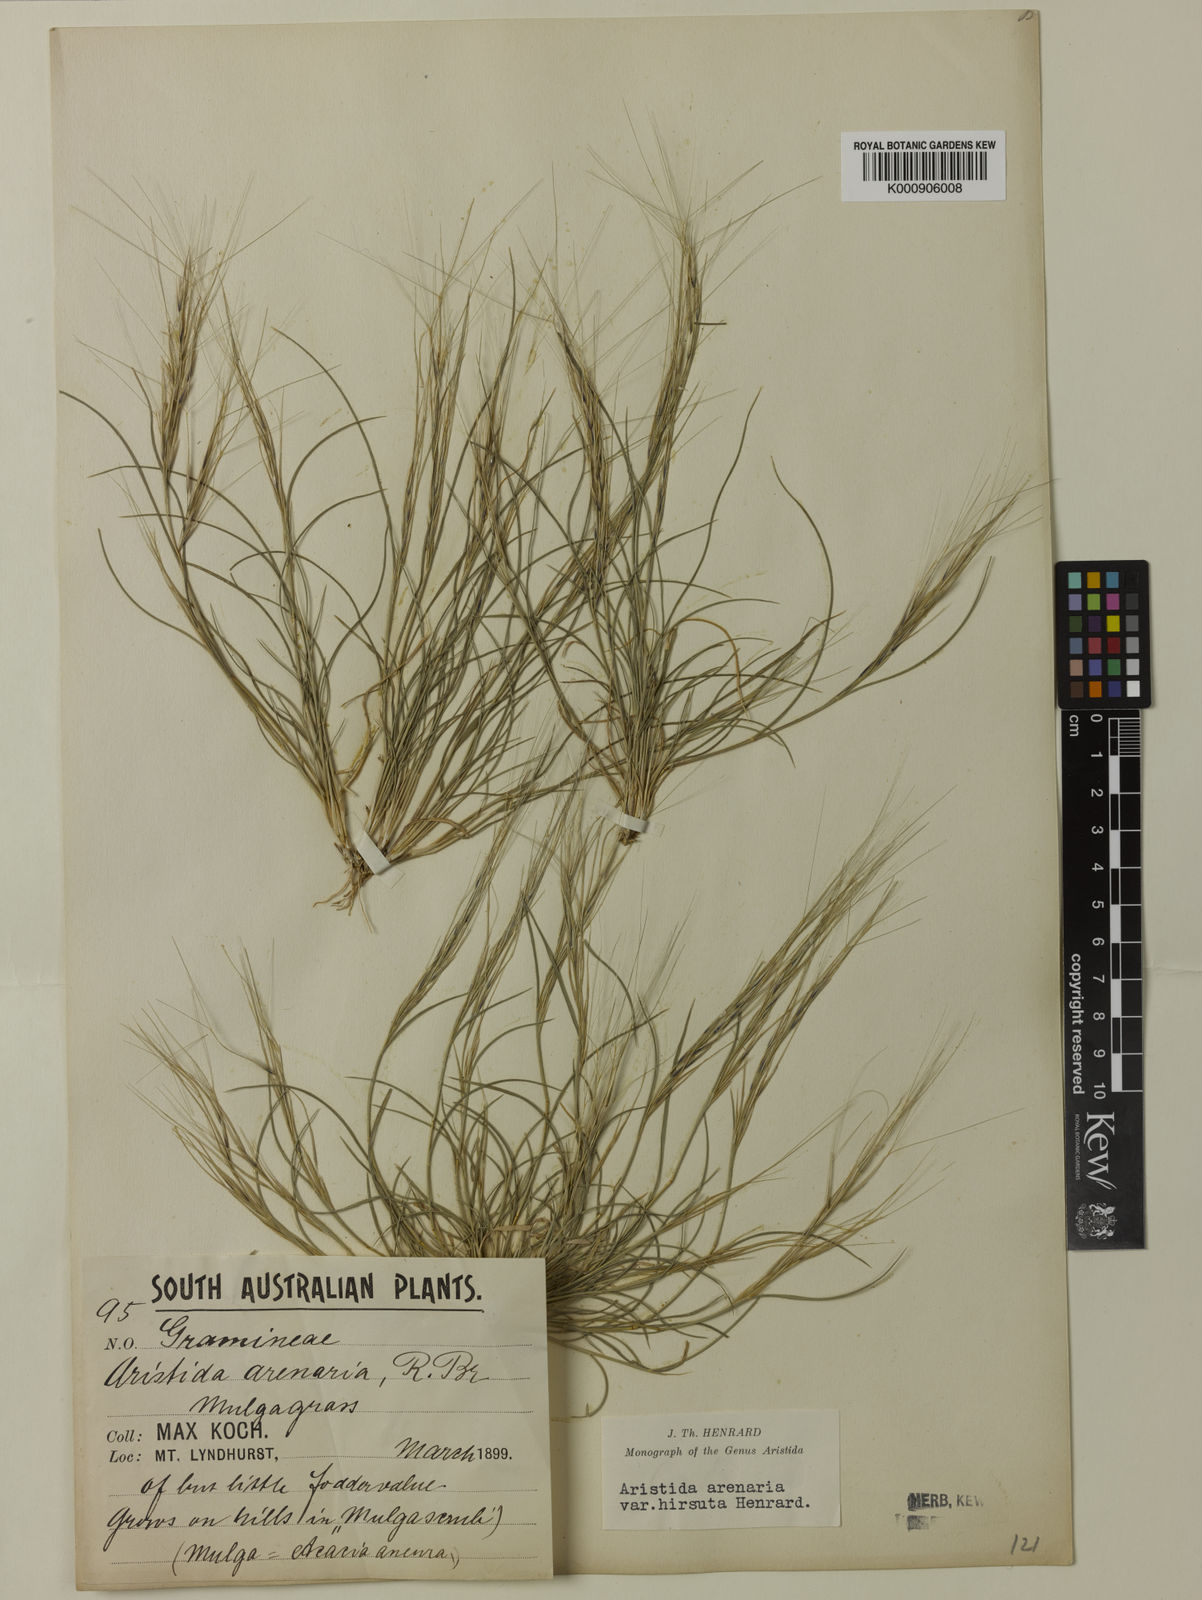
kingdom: Plantae
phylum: Tracheophyta
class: Liliopsida
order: Poales
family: Poaceae
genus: Aristida
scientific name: Aristida contorta
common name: Bunch kerosene grass
